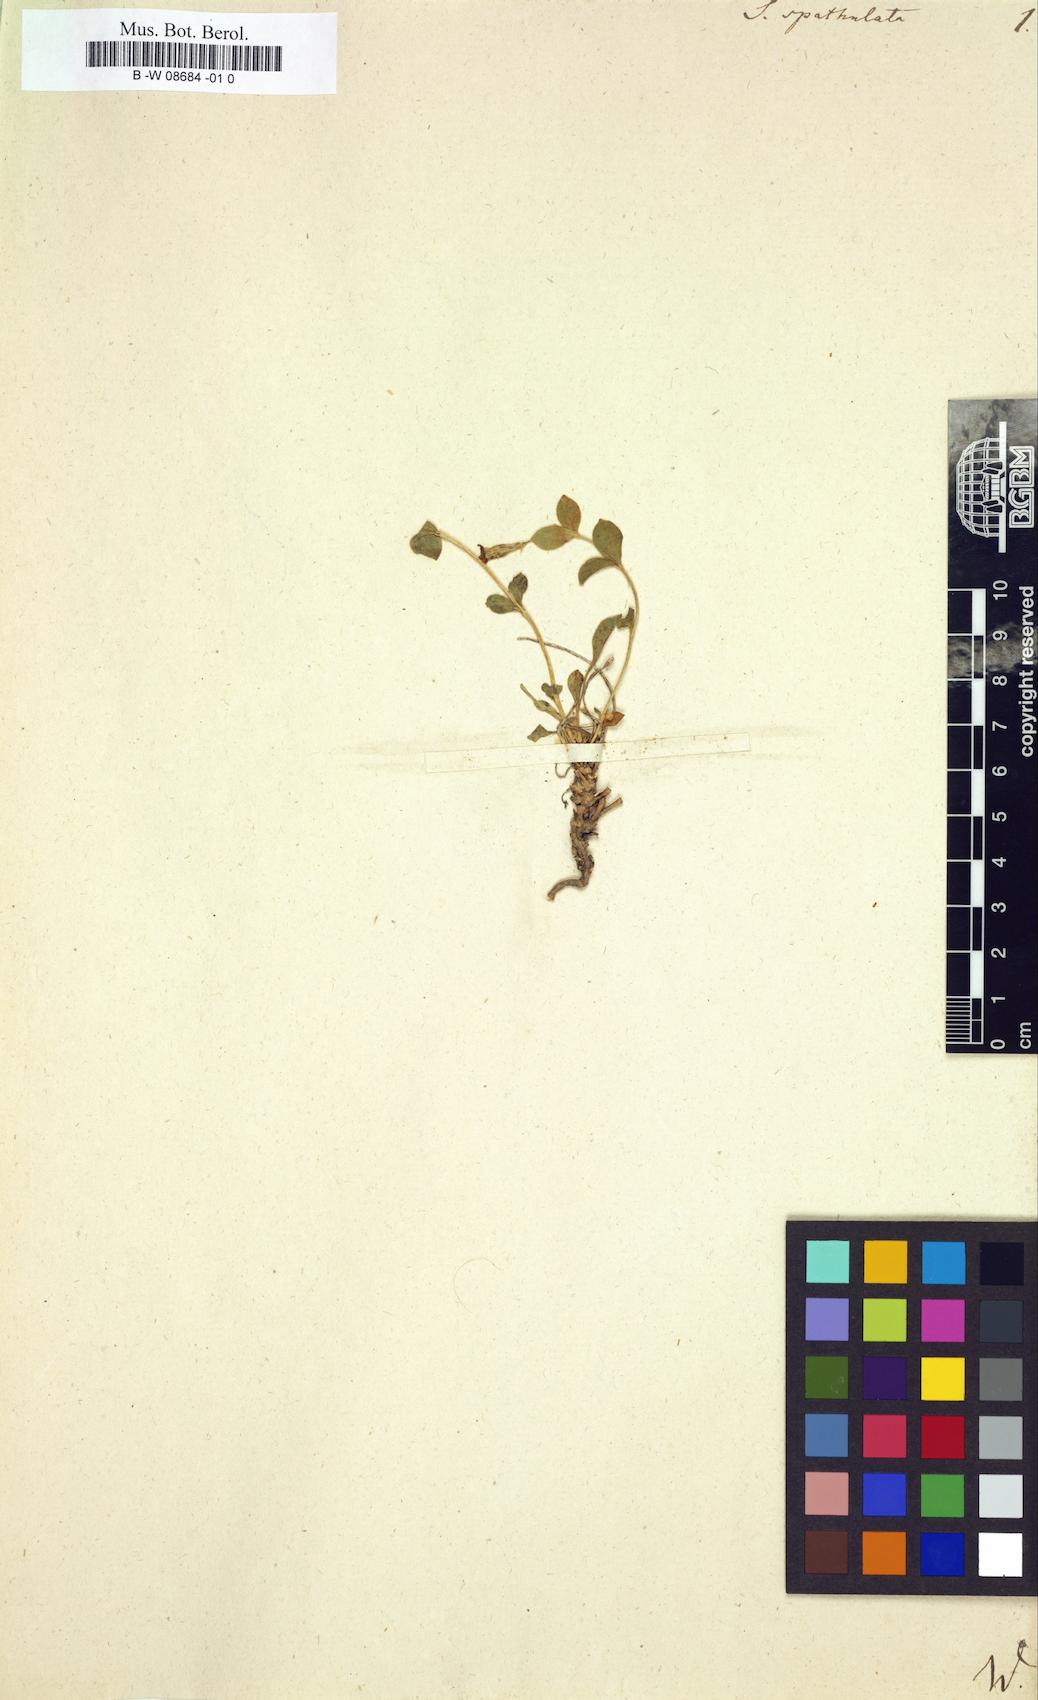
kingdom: Plantae
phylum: Tracheophyta
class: Magnoliopsida
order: Caryophyllales
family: Caryophyllaceae
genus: Silene
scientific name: Silene
